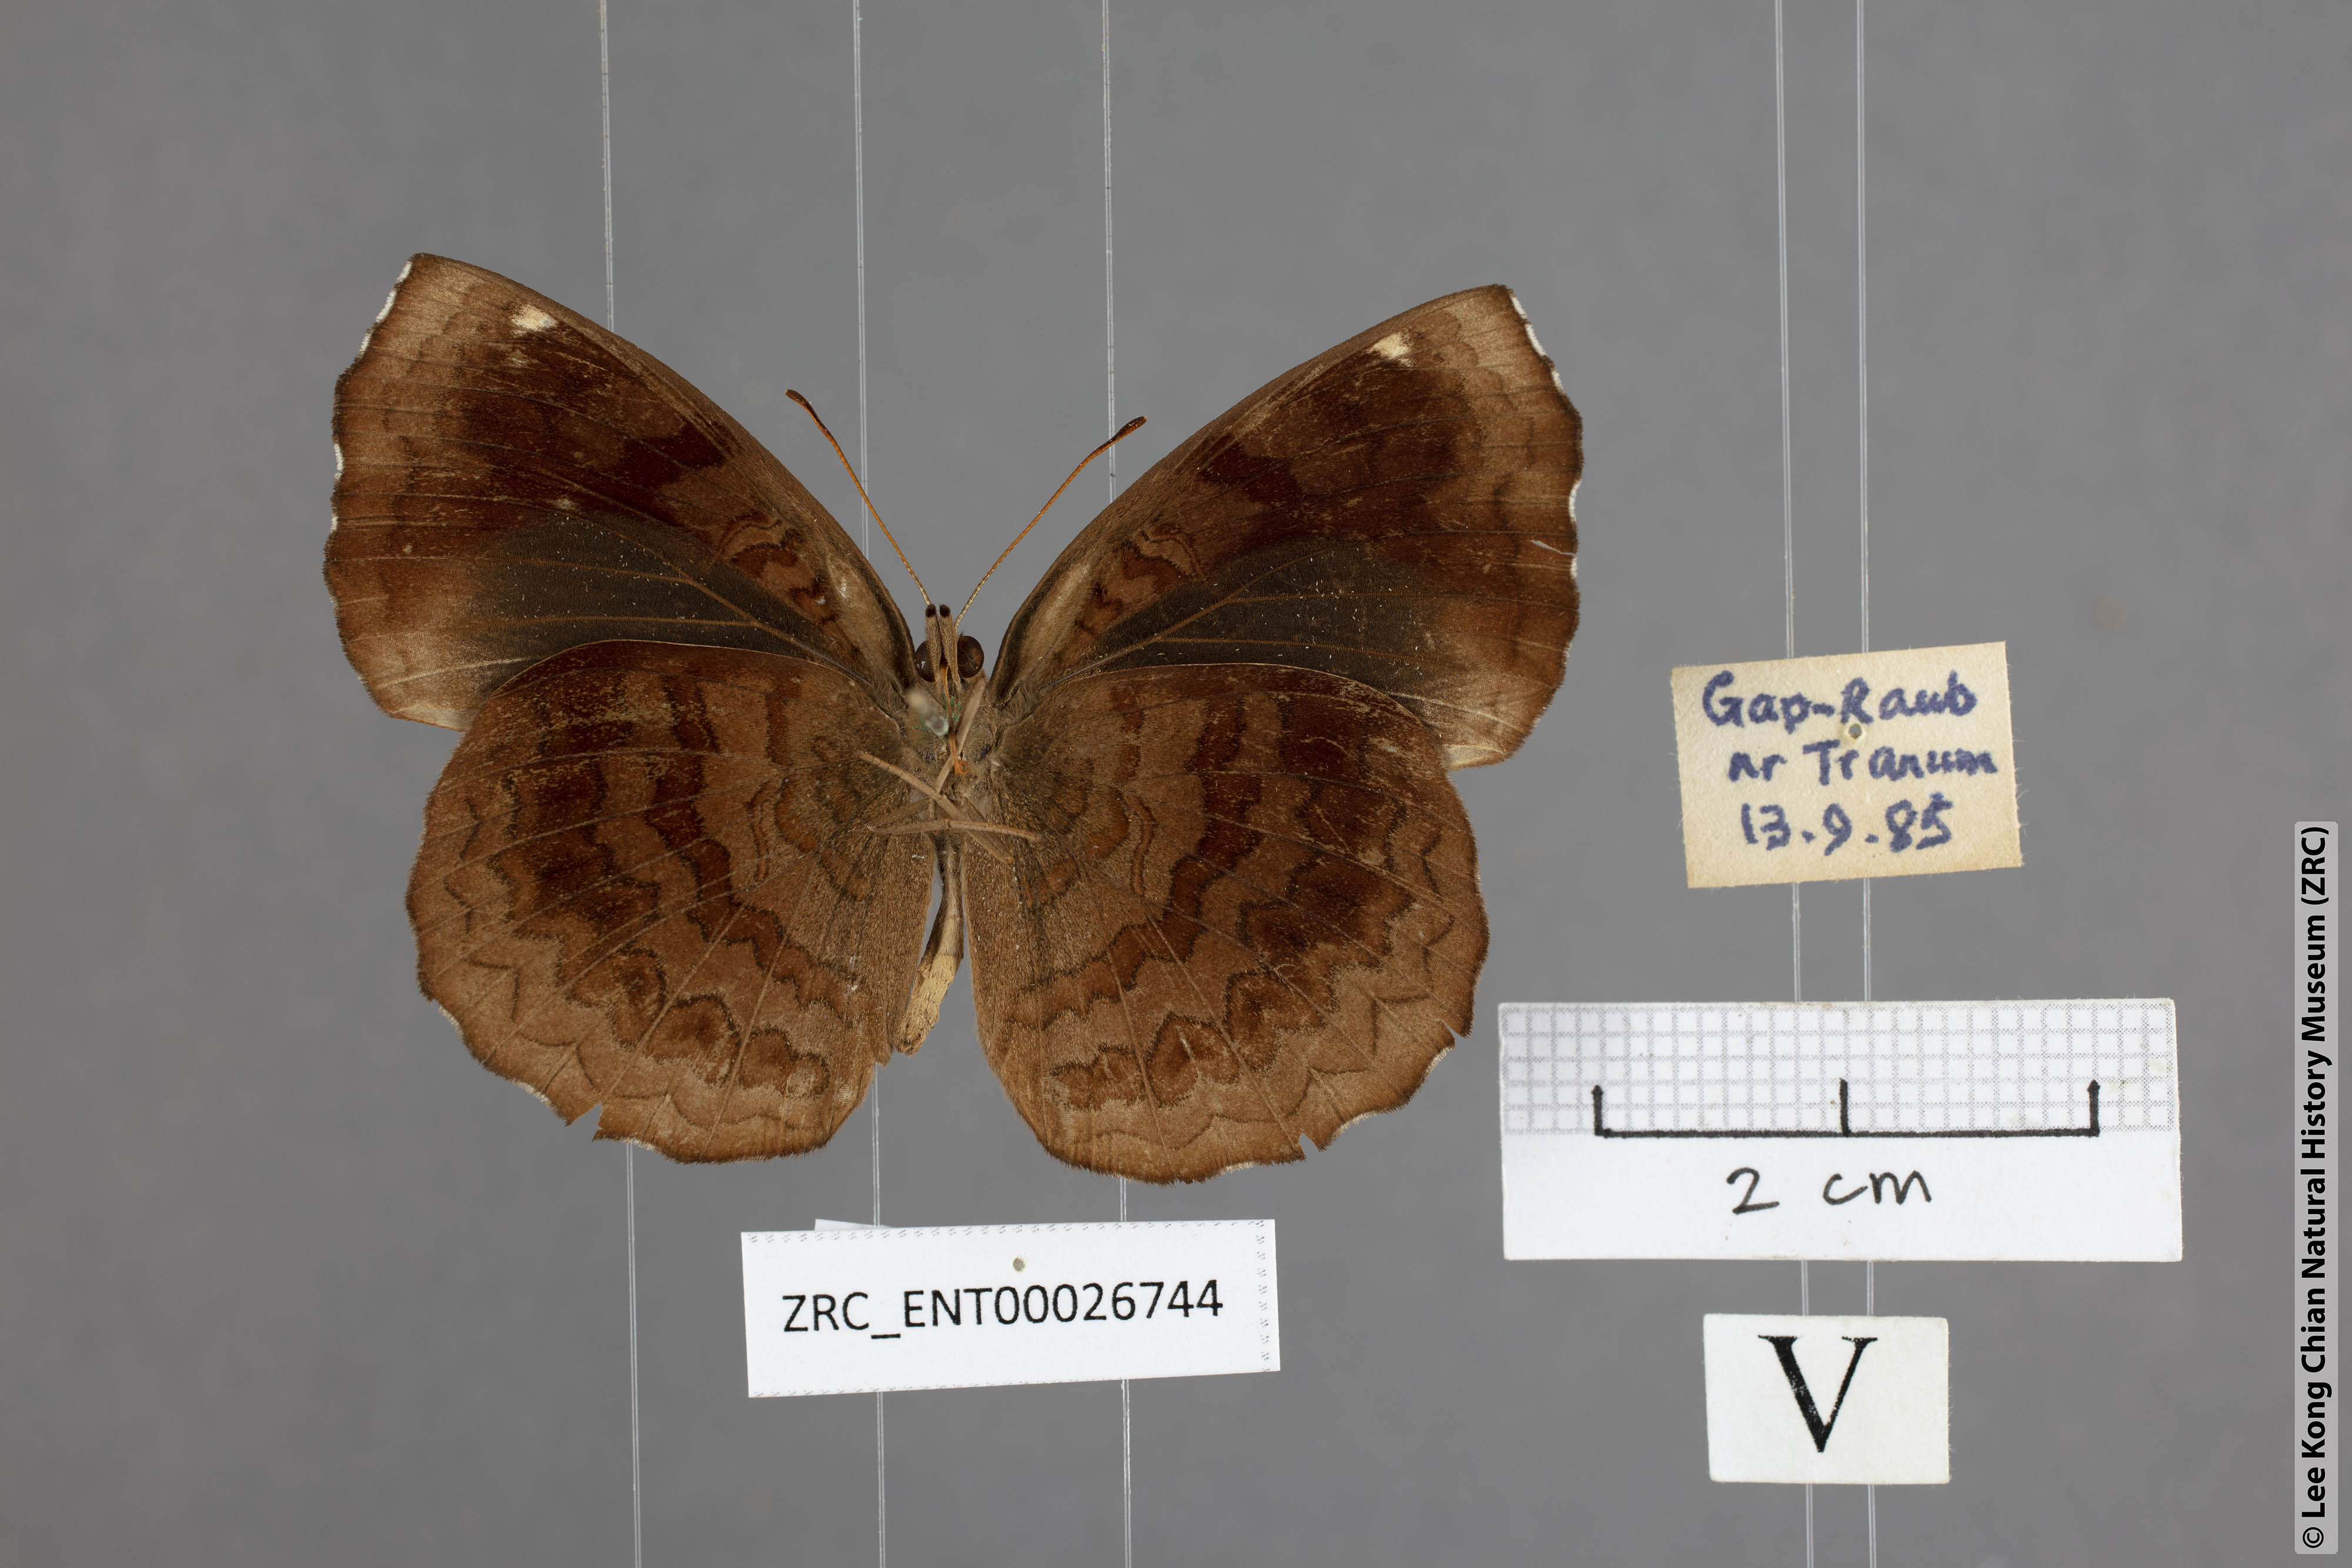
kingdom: Animalia
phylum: Arthropoda
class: Insecta
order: Lepidoptera
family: Nymphalidae
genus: Ariadne
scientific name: Ariadne merione
